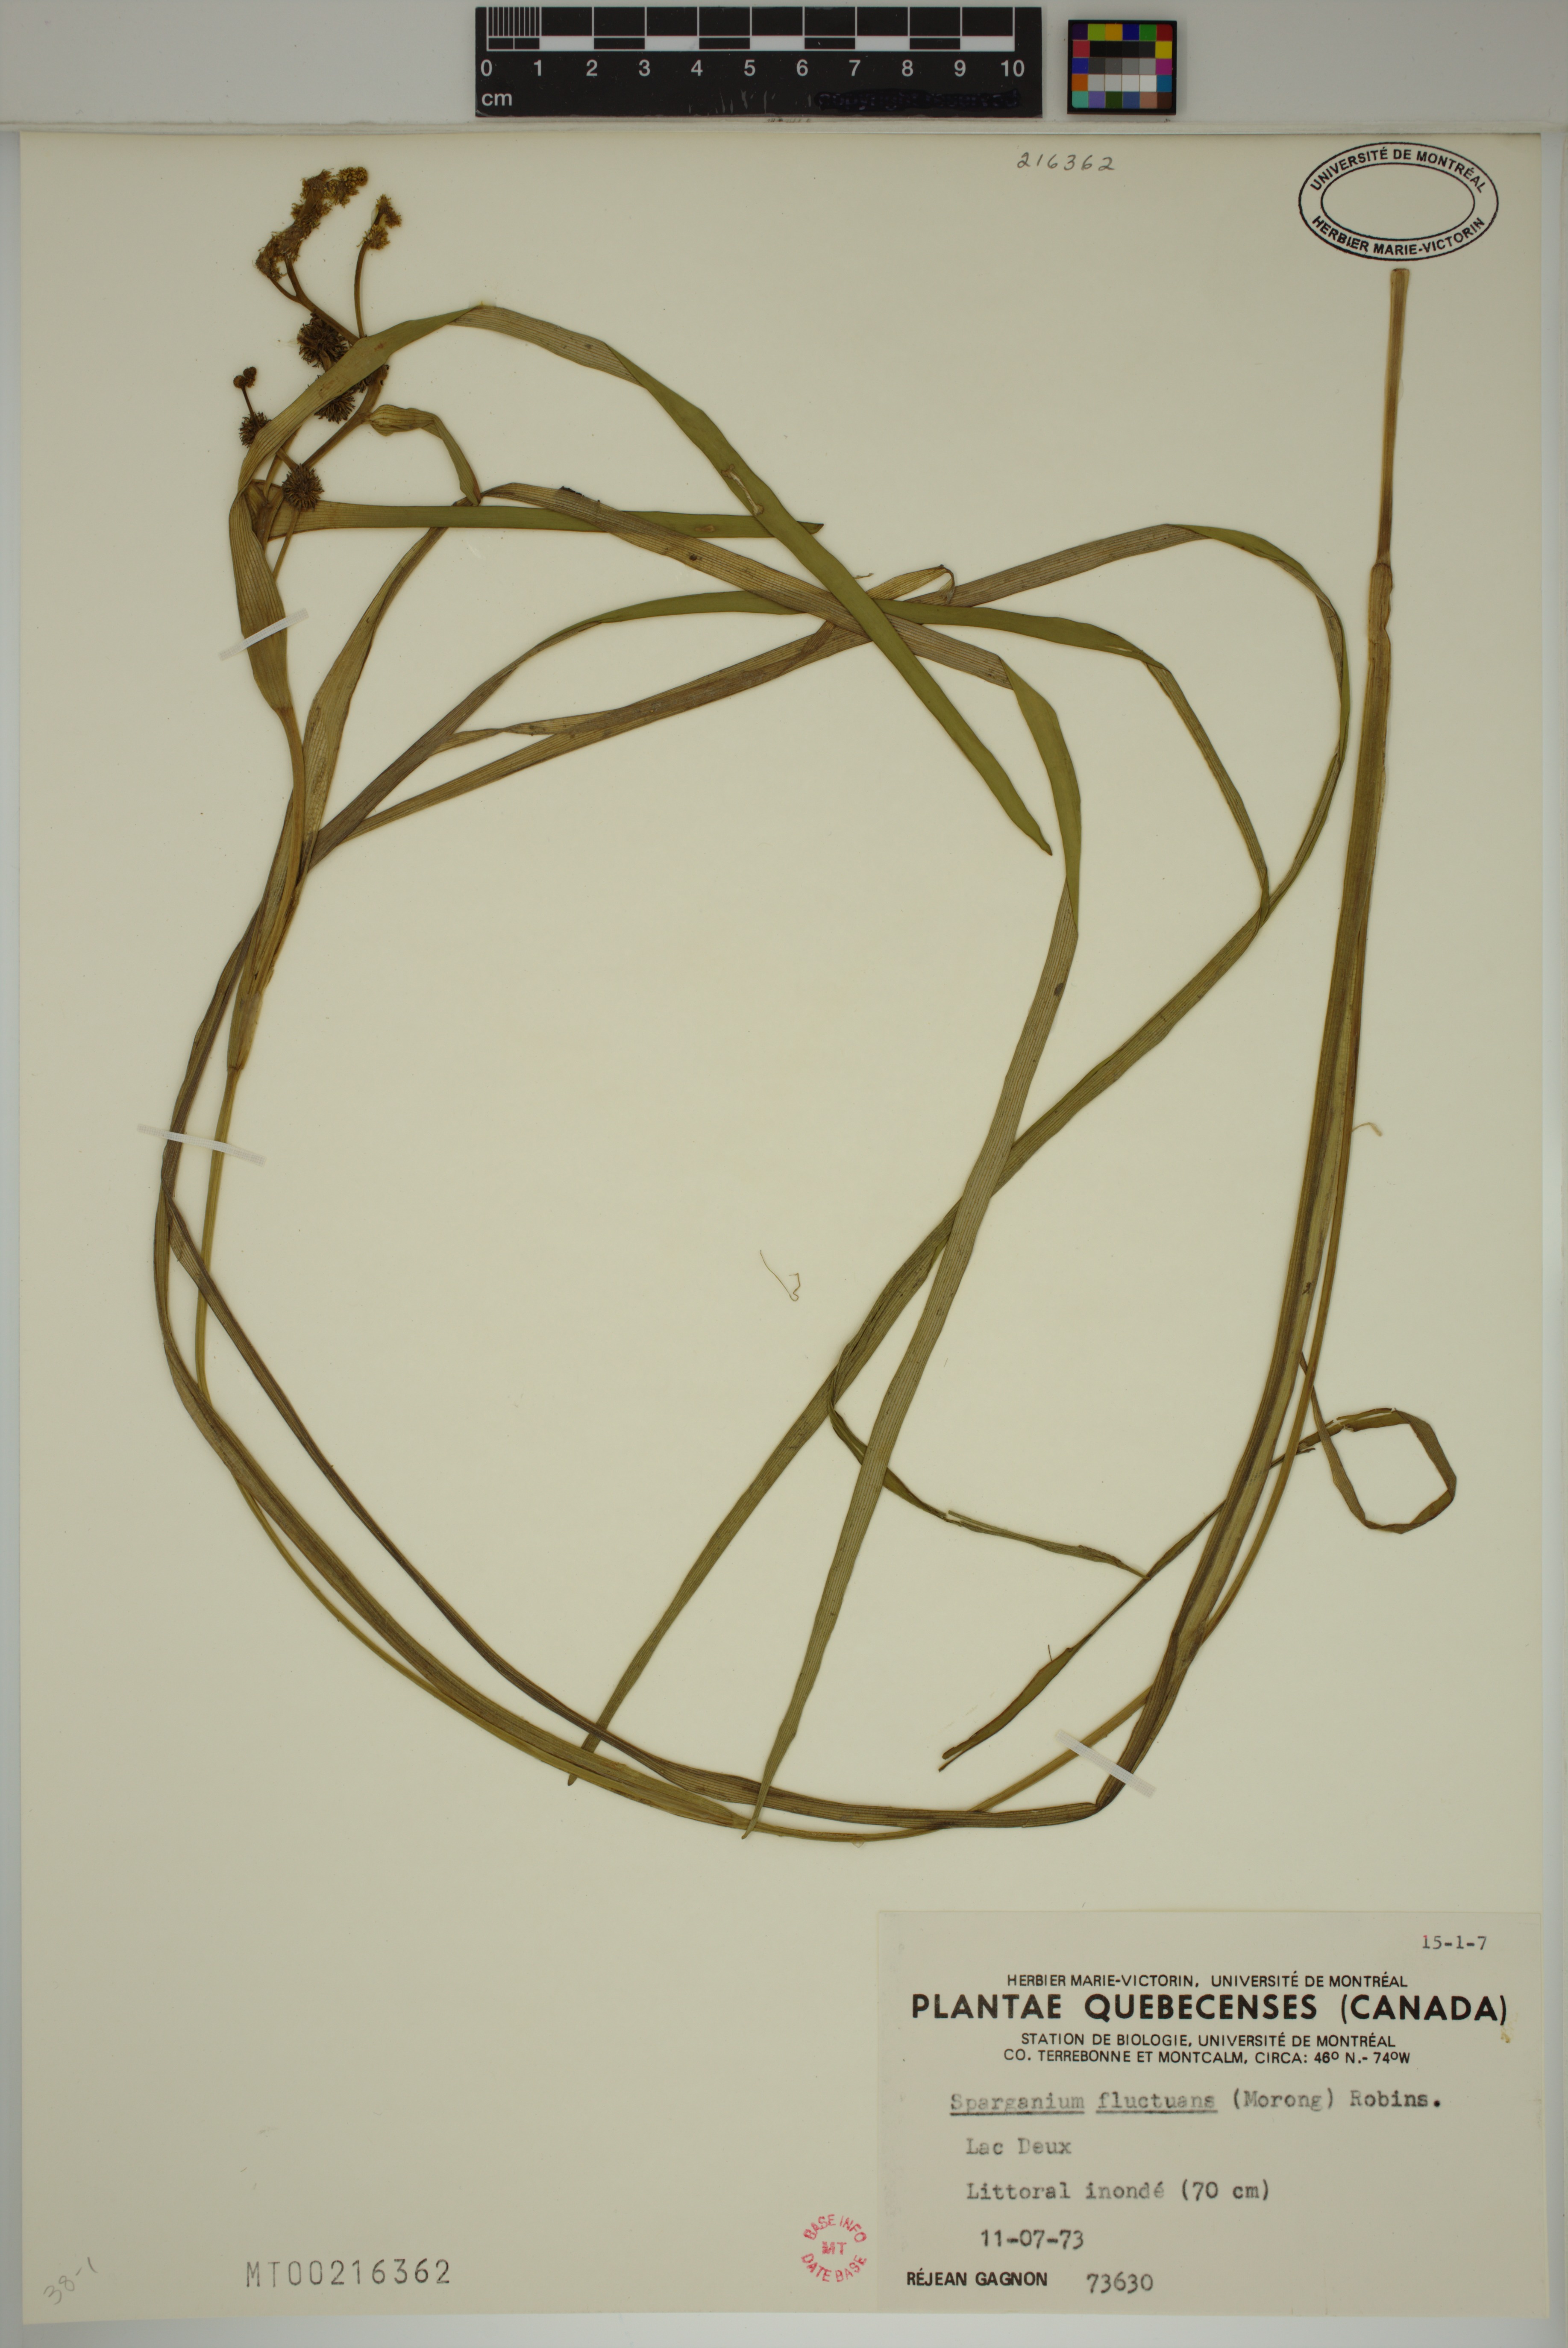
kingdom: Plantae
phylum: Tracheophyta
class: Liliopsida
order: Poales
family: Typhaceae
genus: Sparganium
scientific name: Sparganium fluctuans
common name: Floating burreed
